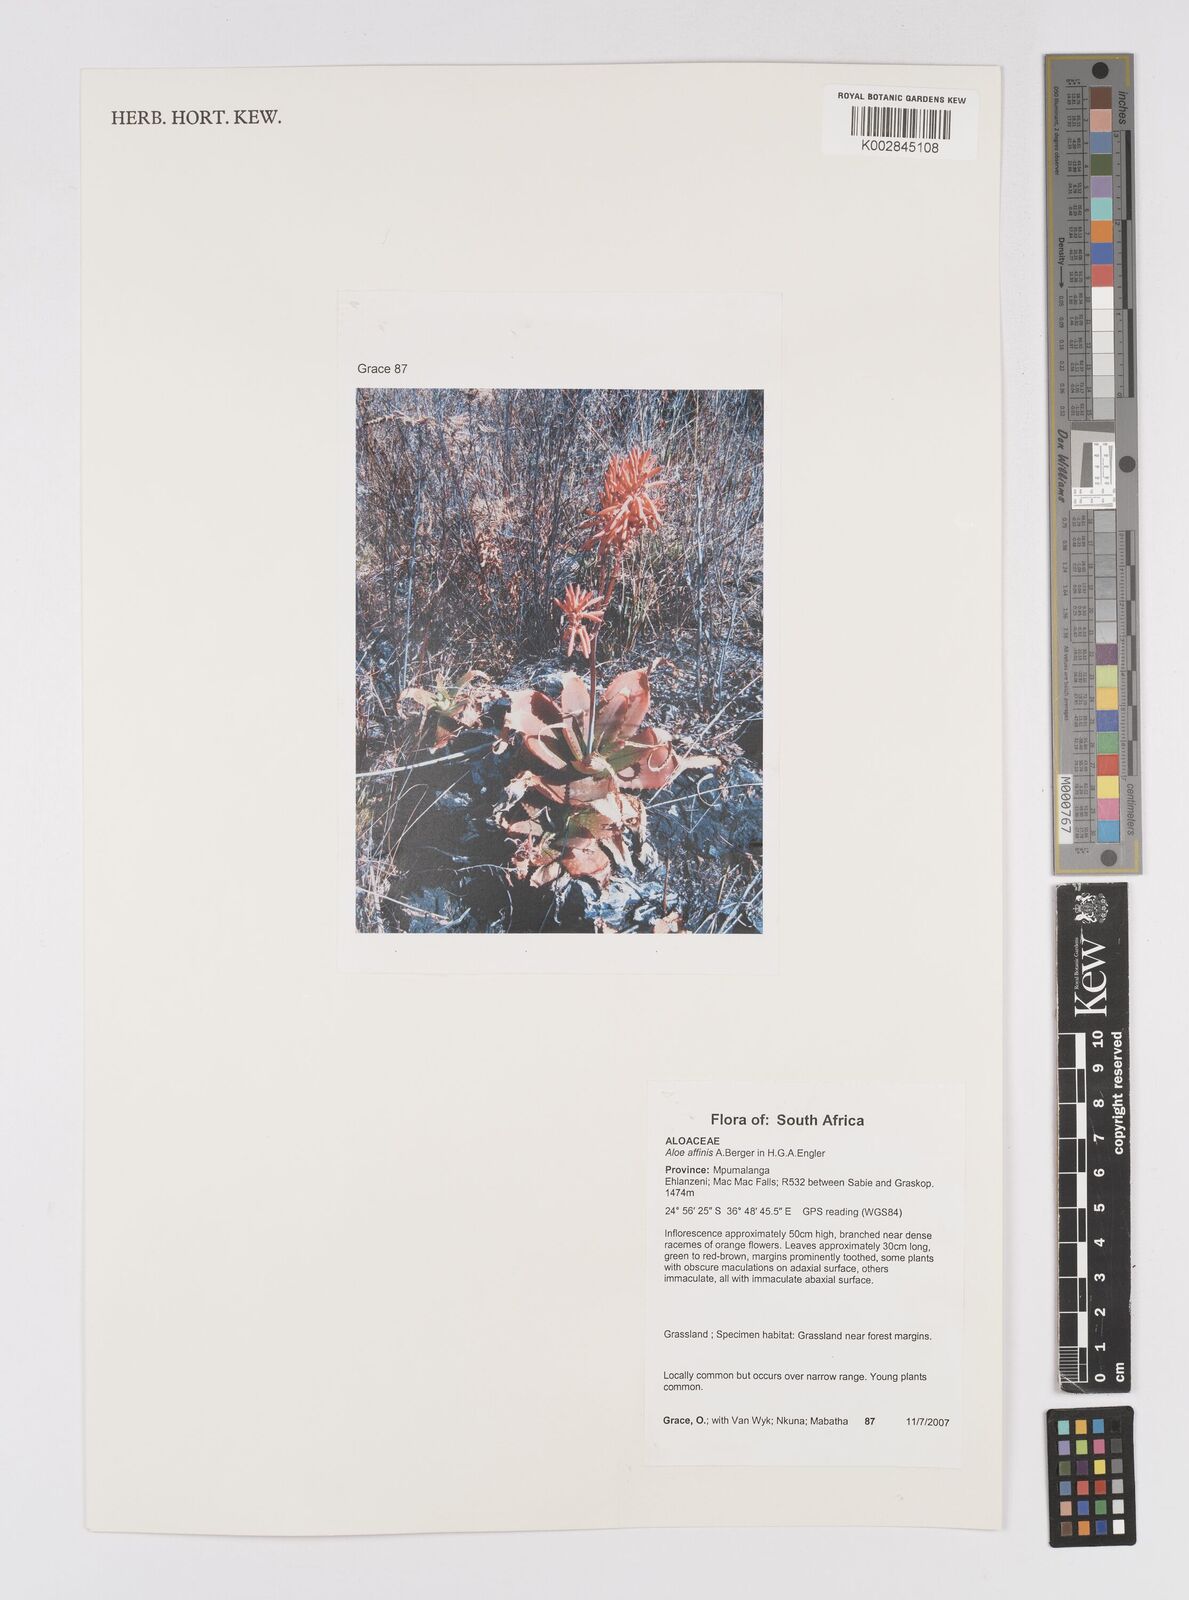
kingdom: Plantae
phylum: Tracheophyta
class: Liliopsida
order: Asparagales
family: Asphodelaceae
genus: Aloe
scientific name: Aloe affinis
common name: Spotted aloe
